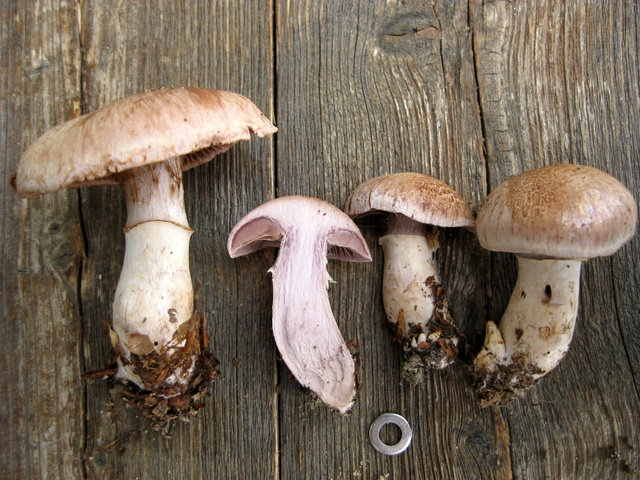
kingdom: Fungi
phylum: Basidiomycota
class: Agaricomycetes
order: Agaricales
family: Cortinariaceae
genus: Cortinarius
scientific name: Cortinarius torvus
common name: champignonagtig slørhat
